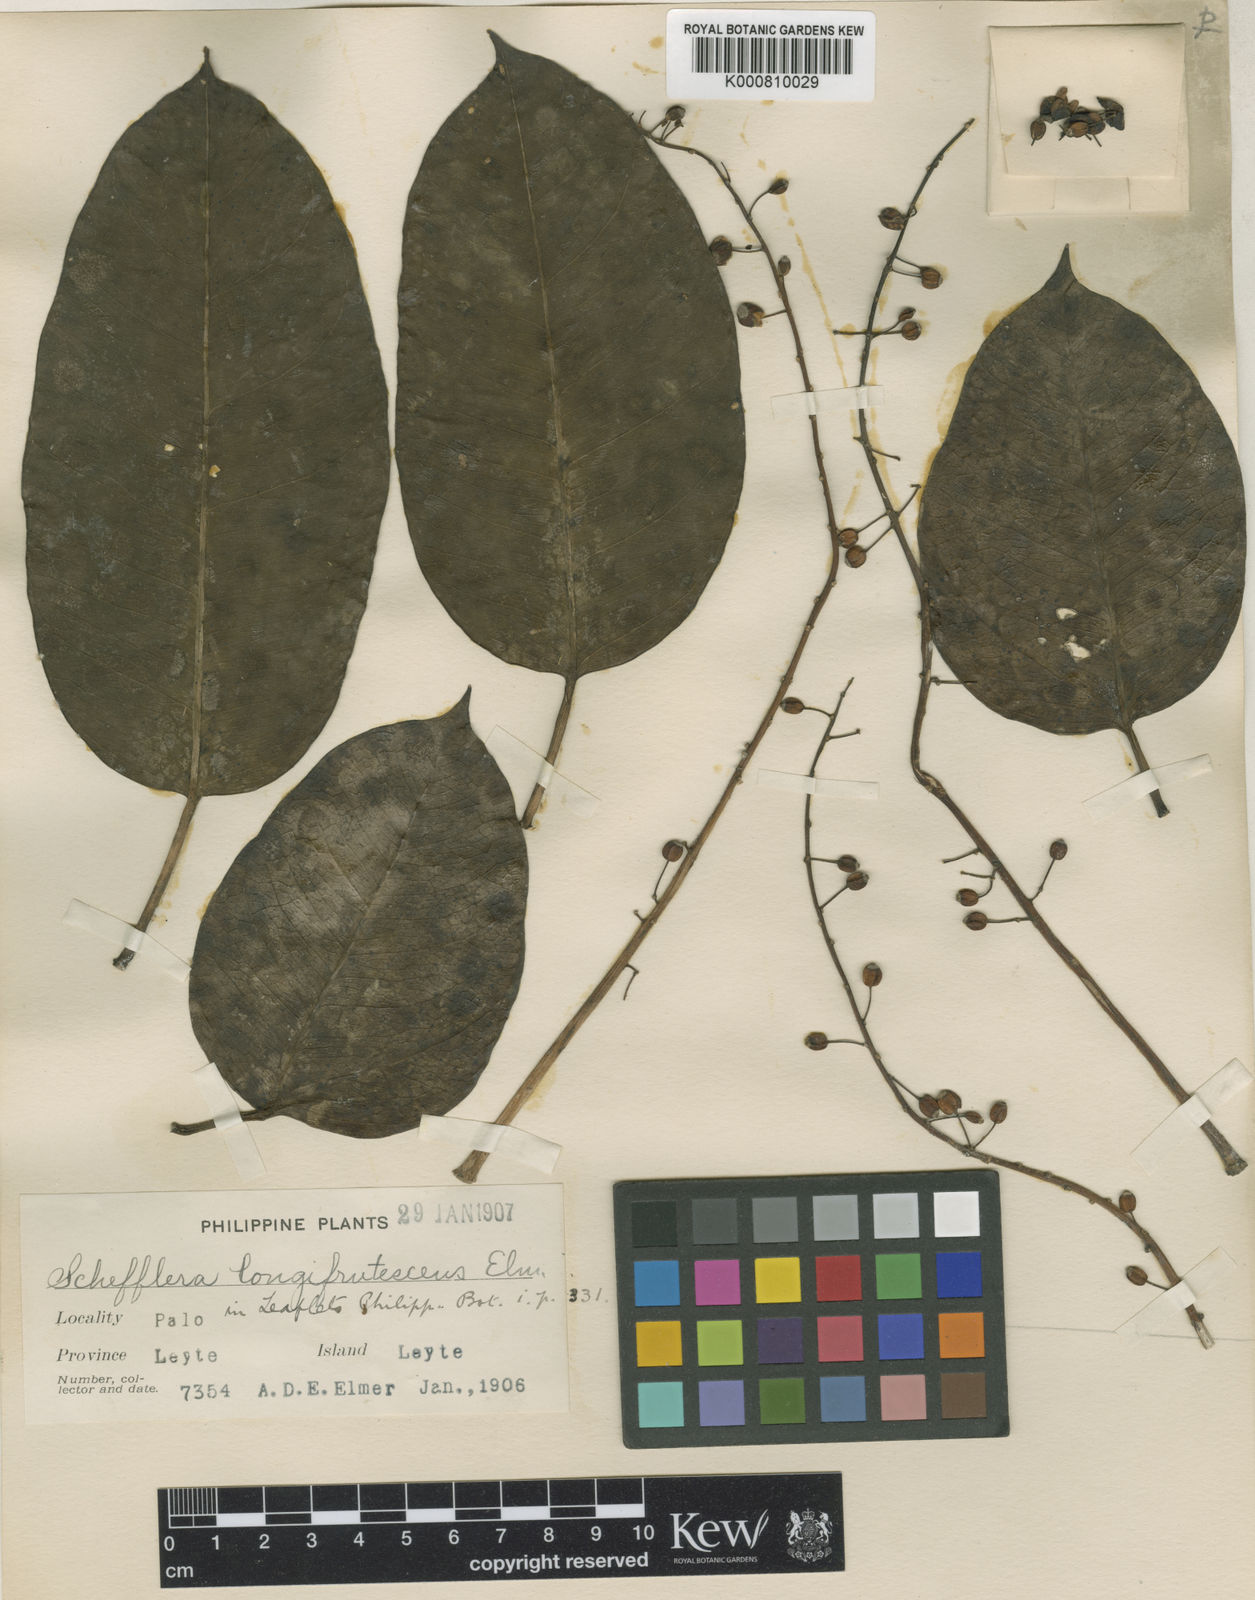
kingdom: Plantae
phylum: Tracheophyta
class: Magnoliopsida
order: Apiales
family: Araliaceae
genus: Heptapleurum
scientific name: Heptapleurum longifrutescens
